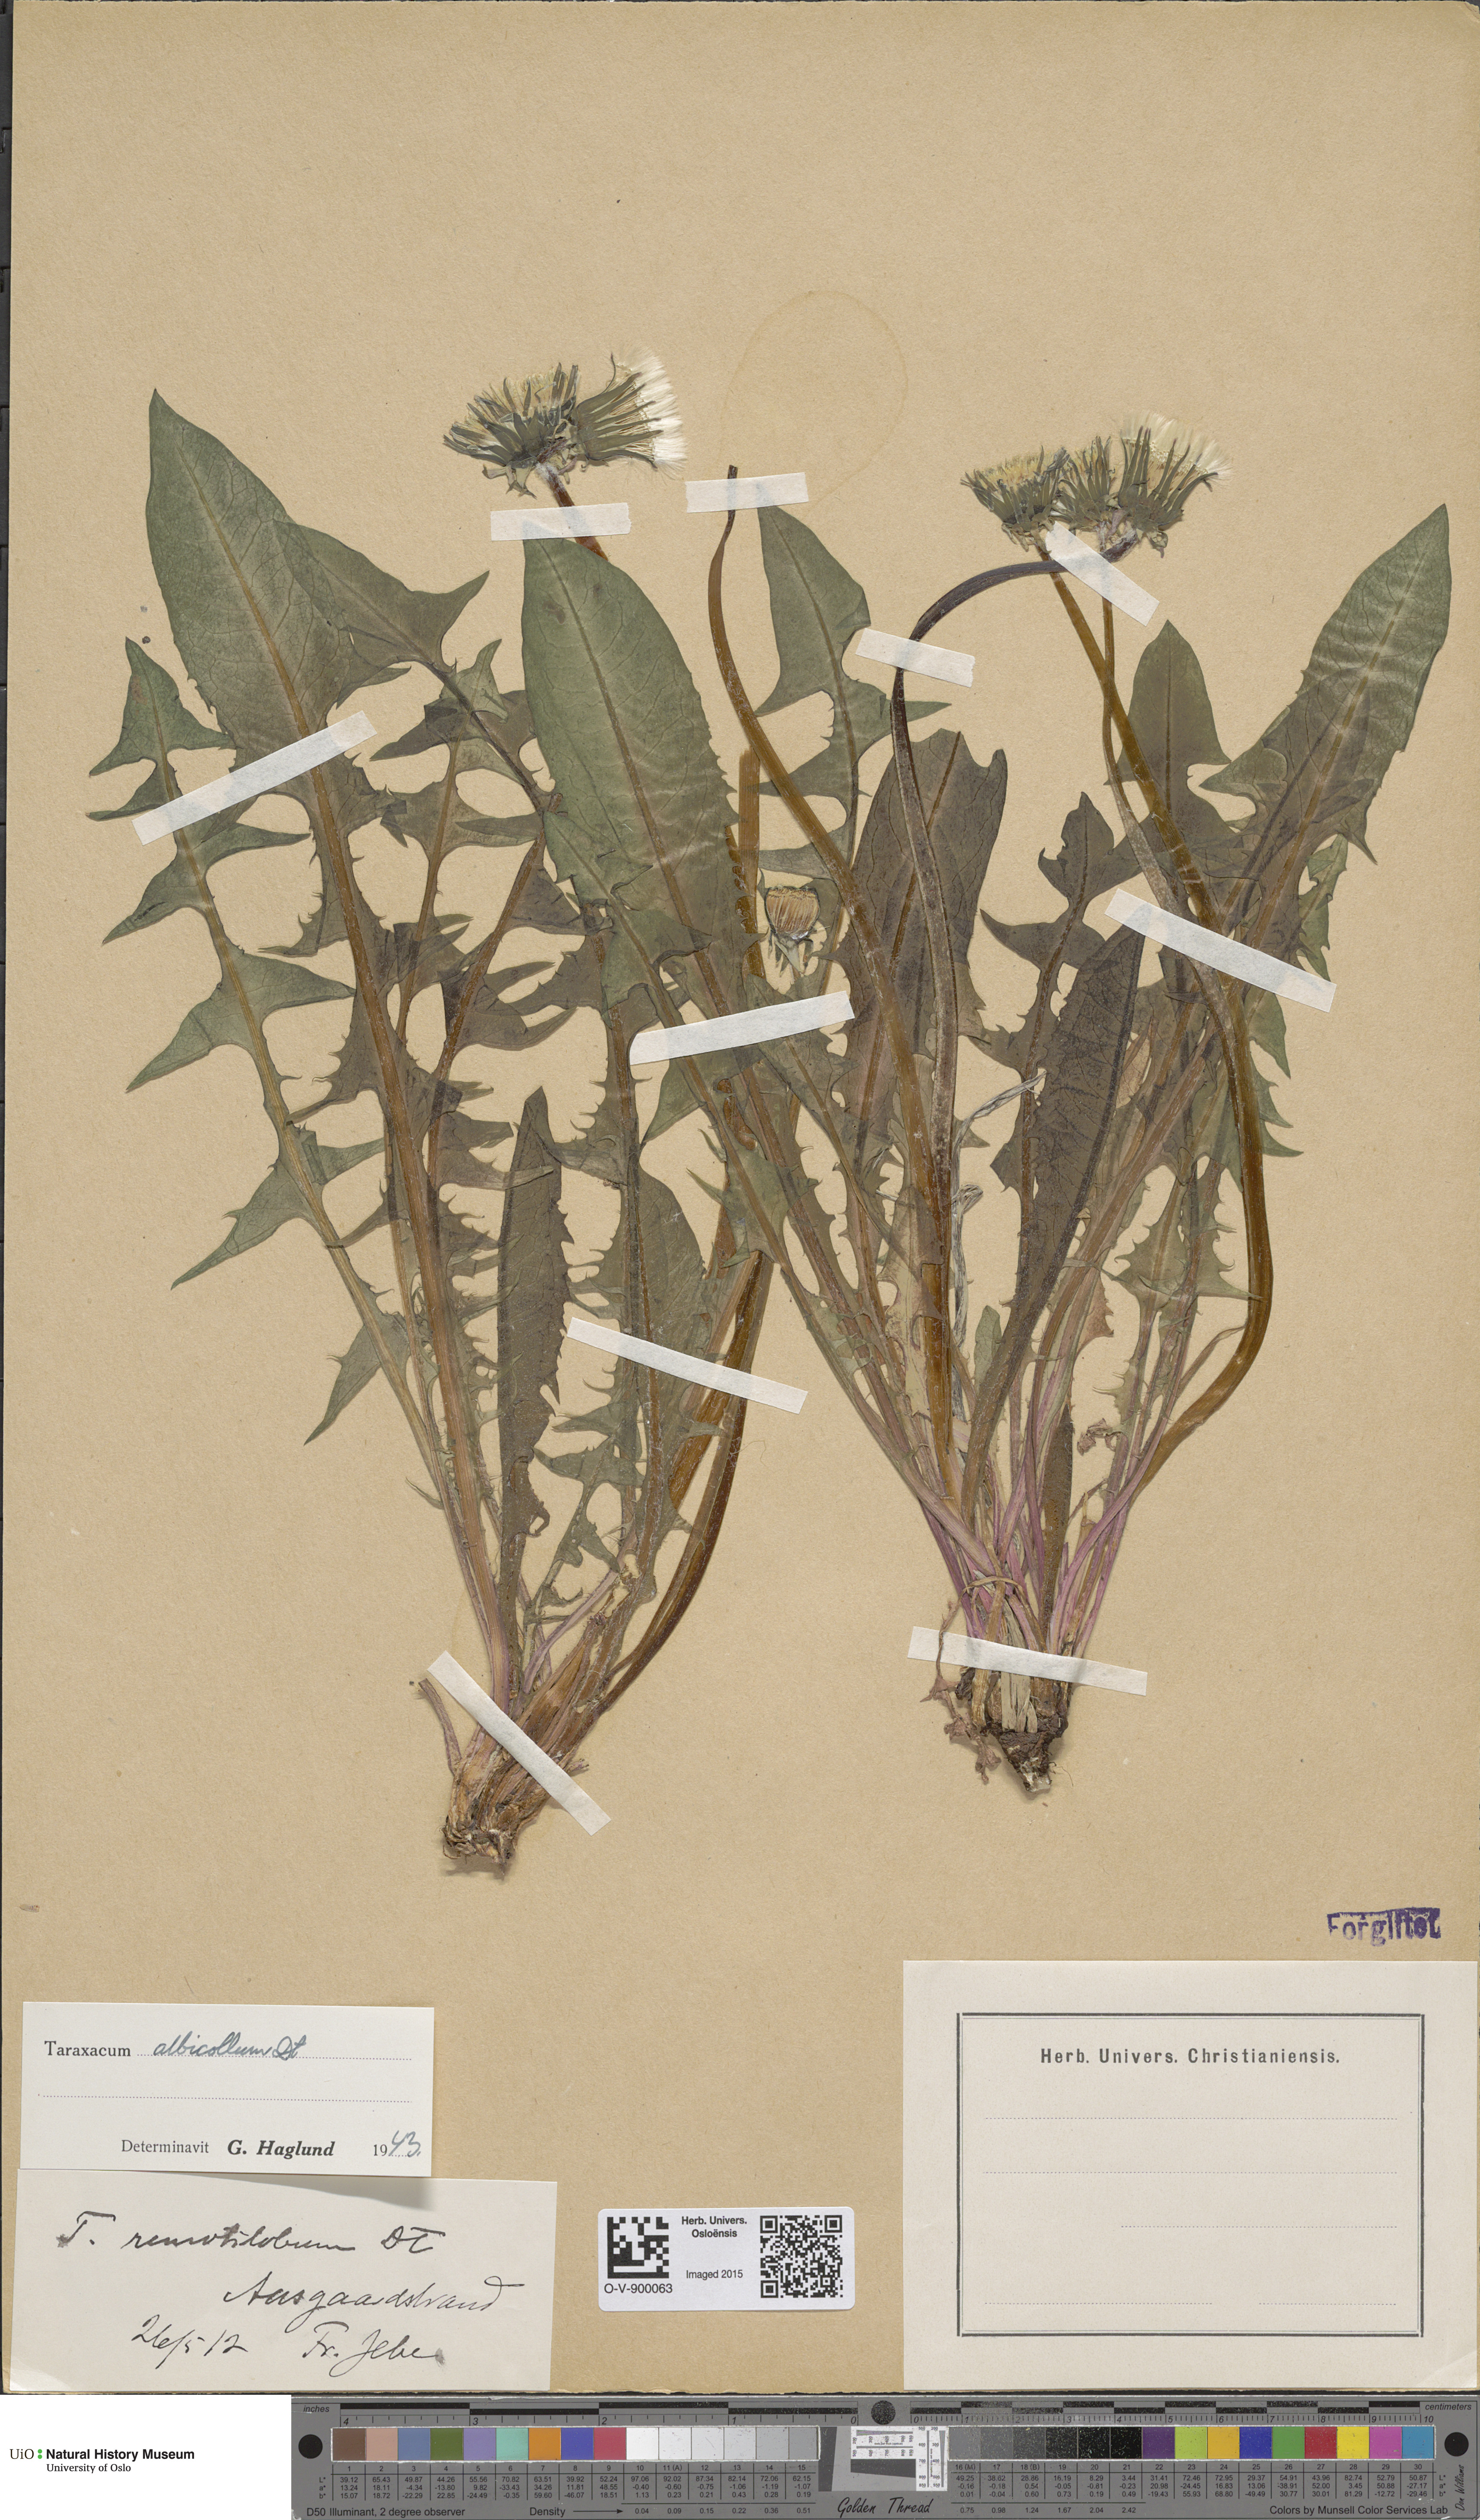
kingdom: Plantae
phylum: Tracheophyta
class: Magnoliopsida
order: Asterales
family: Asteraceae
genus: Taraxacum
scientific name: Taraxacum aequilobum
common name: Twisted-bracted dandelion
